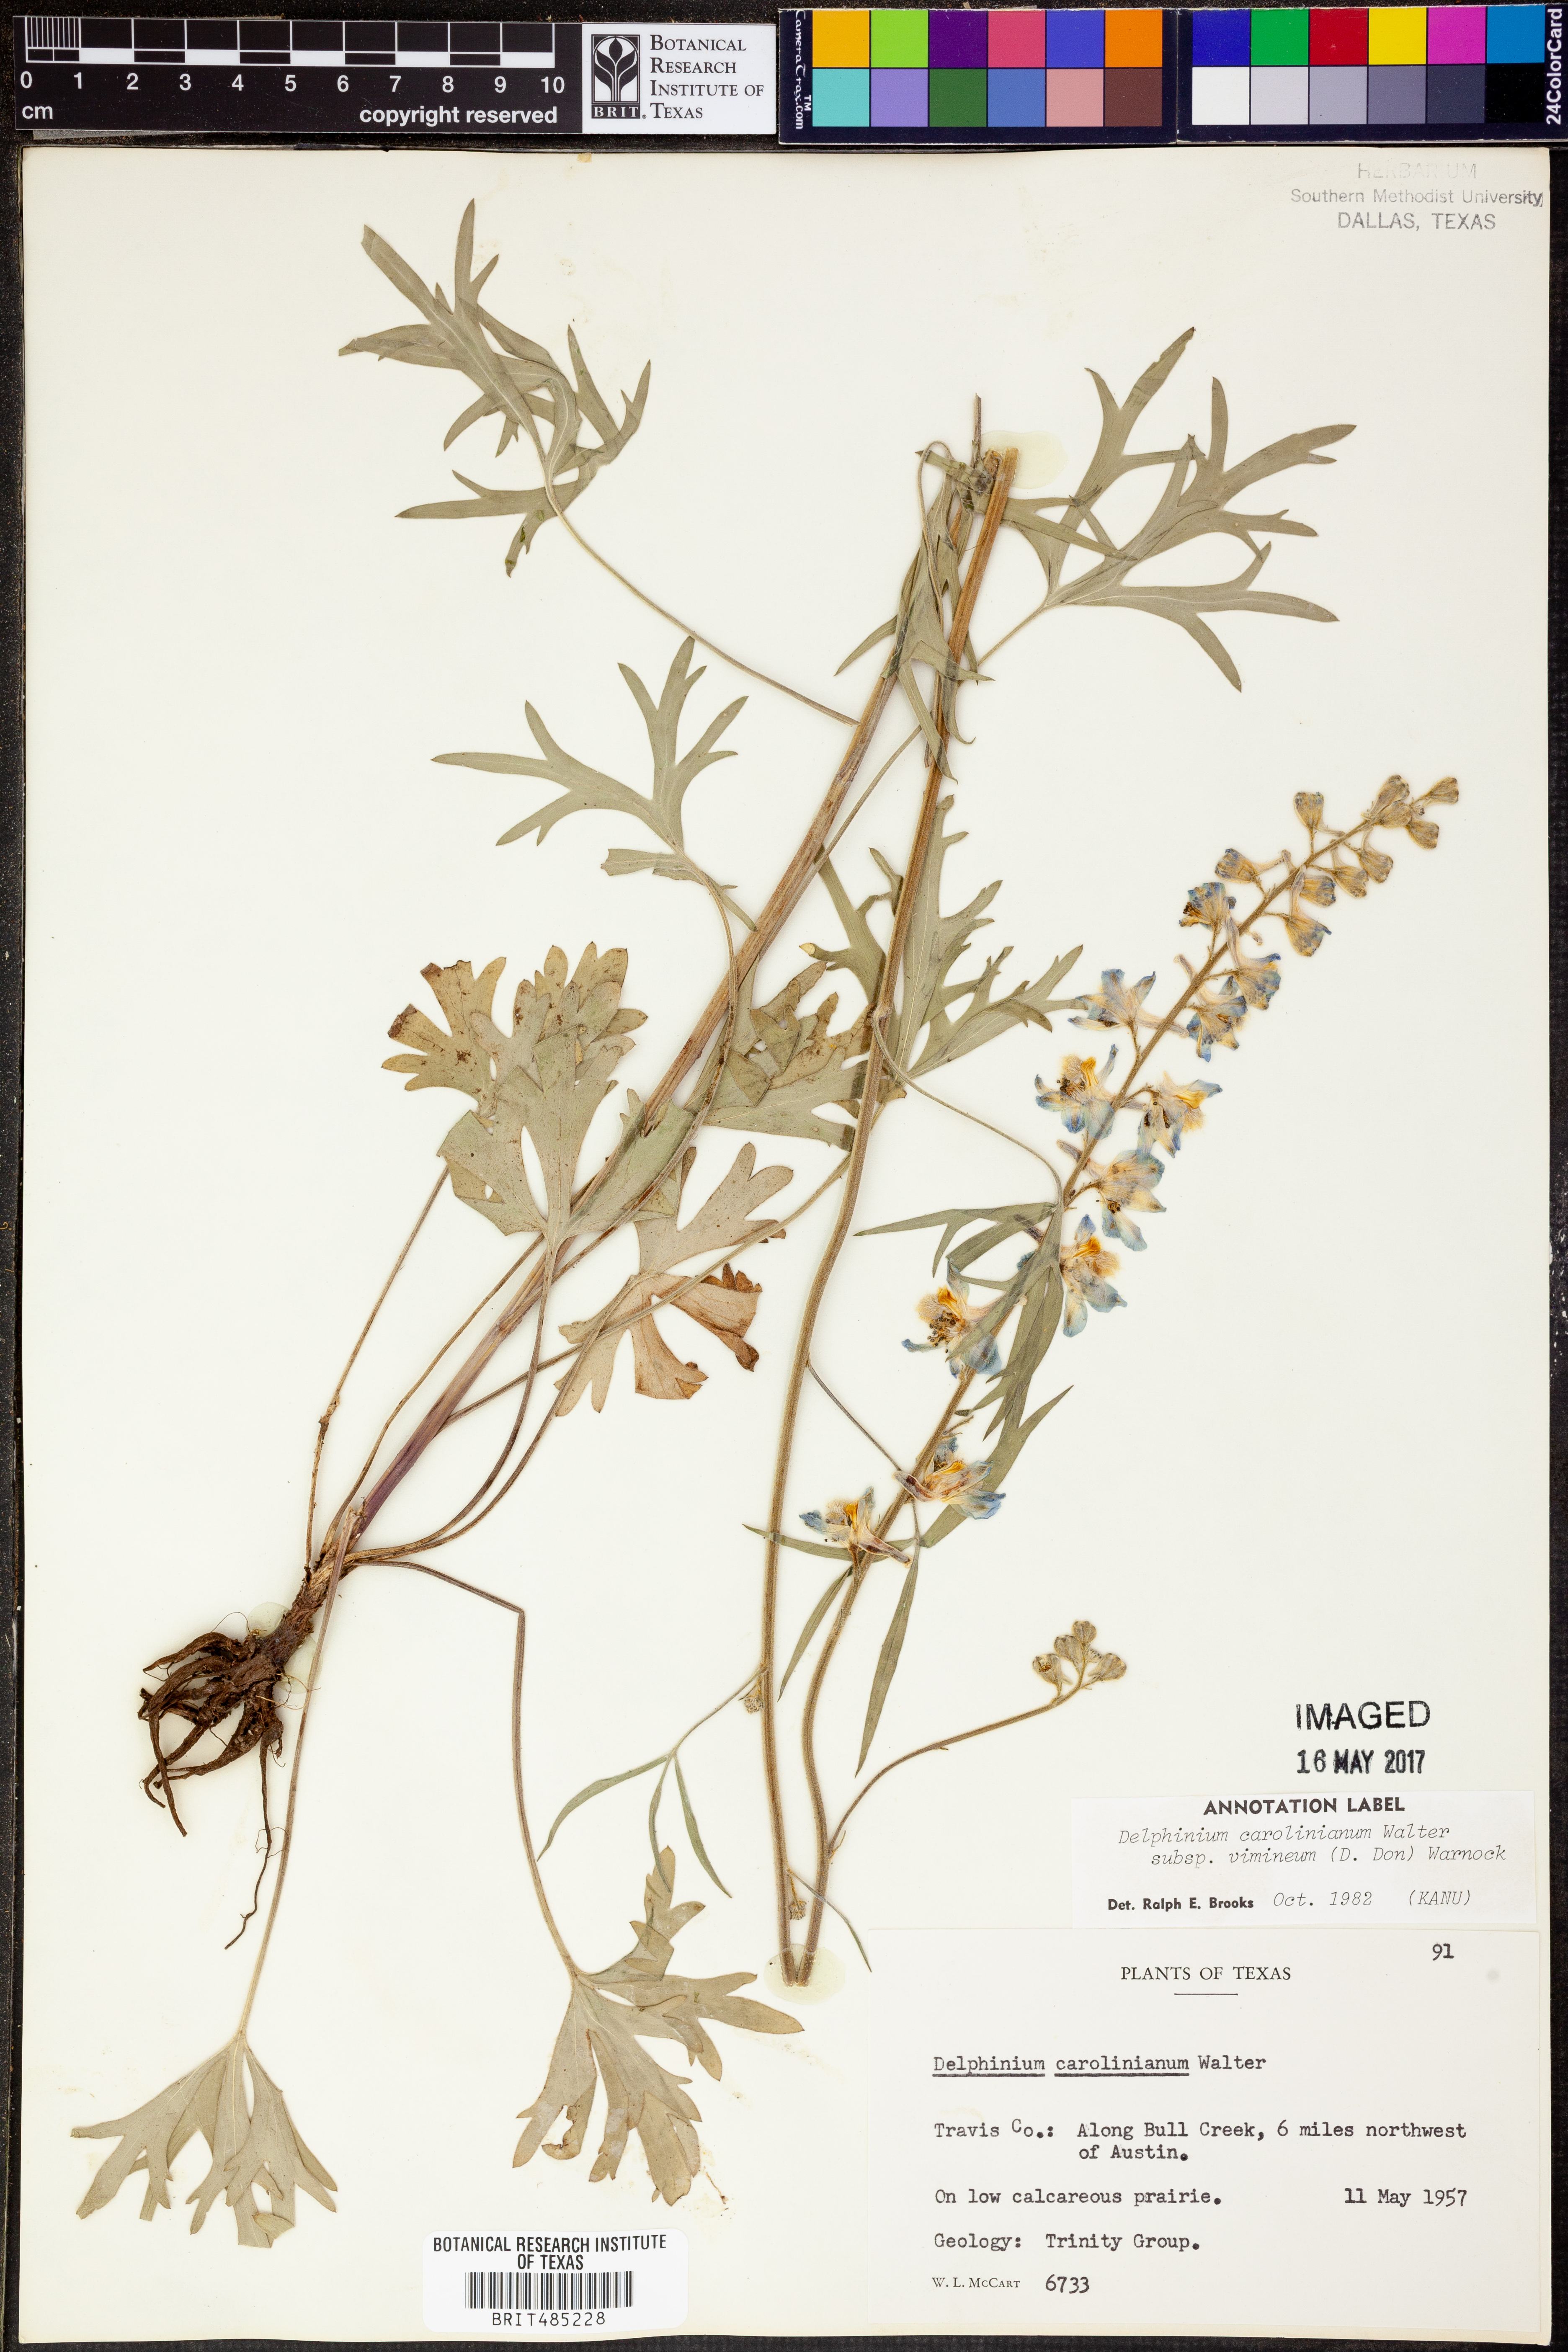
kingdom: Plantae
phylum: Tracheophyta
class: Magnoliopsida
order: Ranunculales
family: Ranunculaceae
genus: Delphinium
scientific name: Delphinium carolinianum
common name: Carolina larkspur
